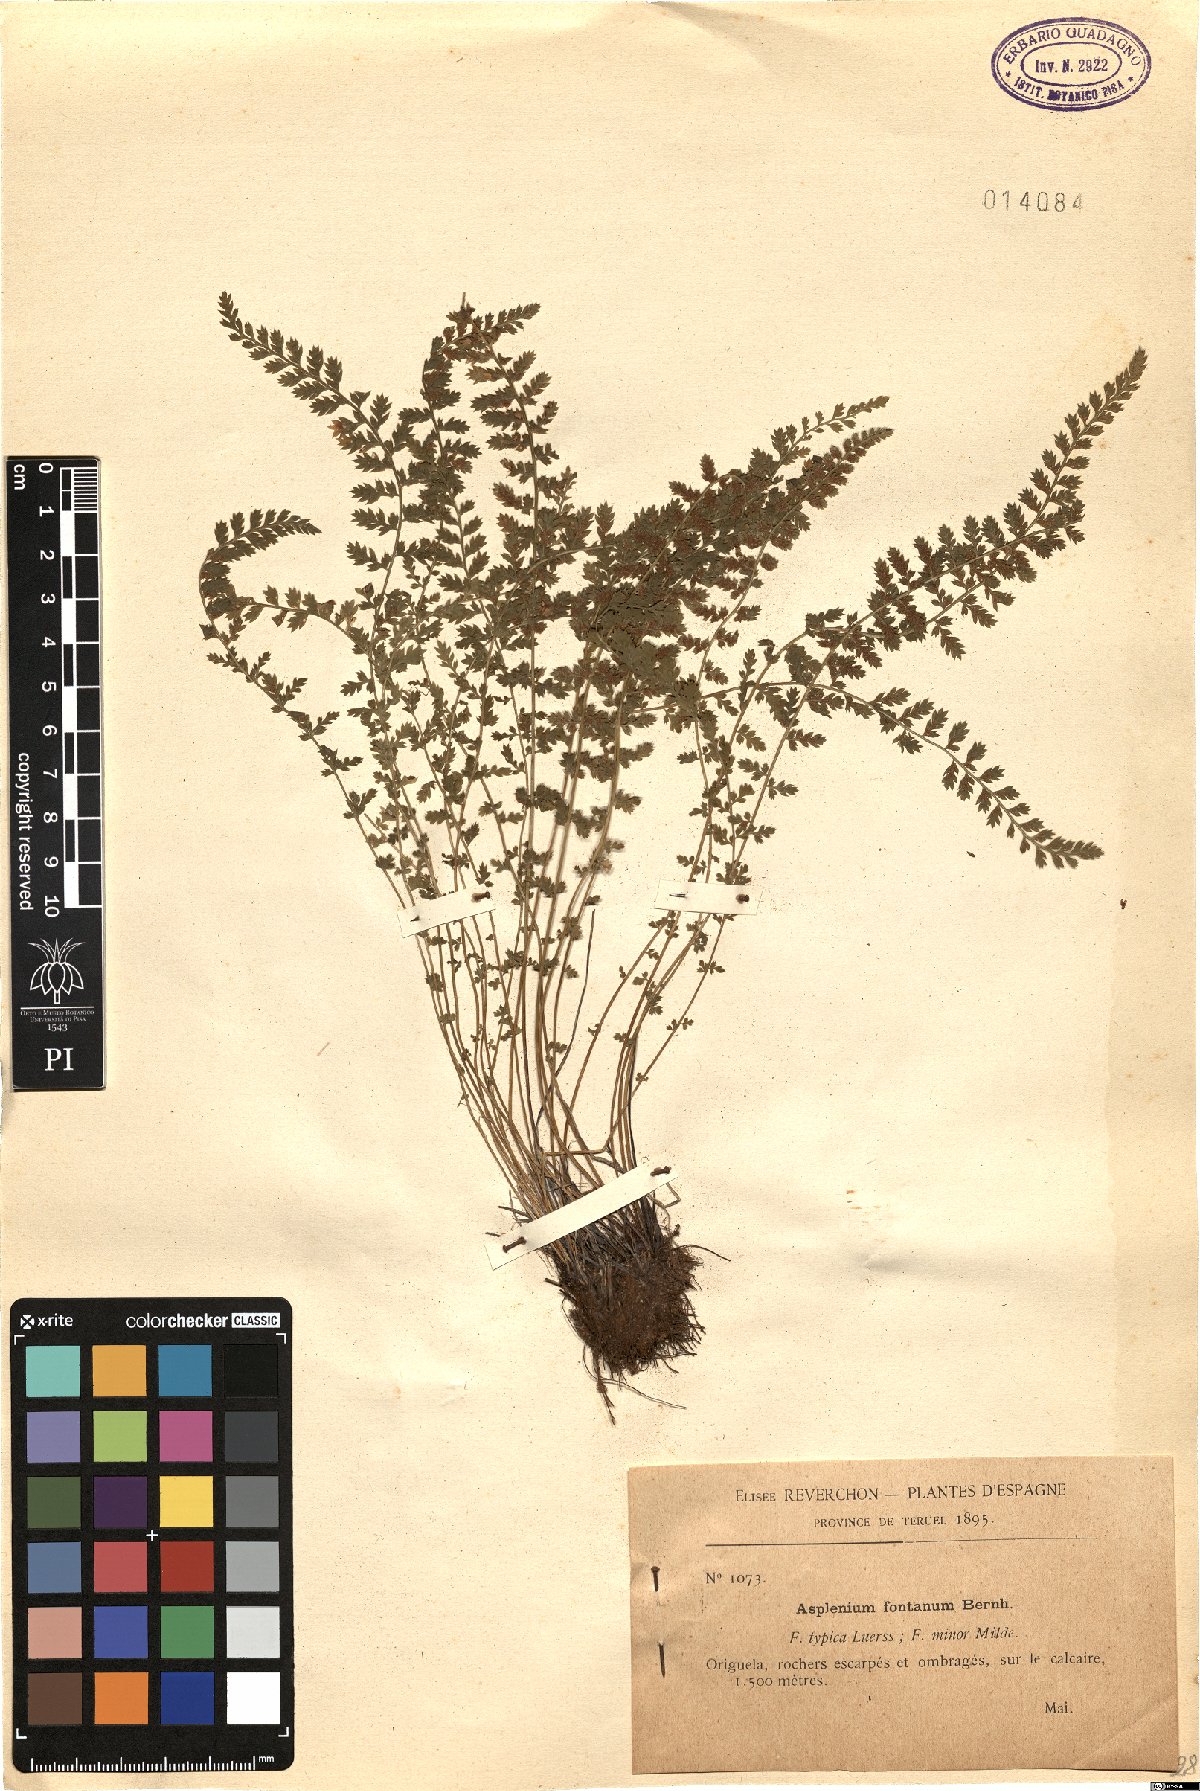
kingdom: Plantae
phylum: Tracheophyta
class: Polypodiopsida
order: Polypodiales
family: Aspleniaceae
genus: Asplenium
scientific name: Asplenium fontanum
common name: Fountain spleenwort
